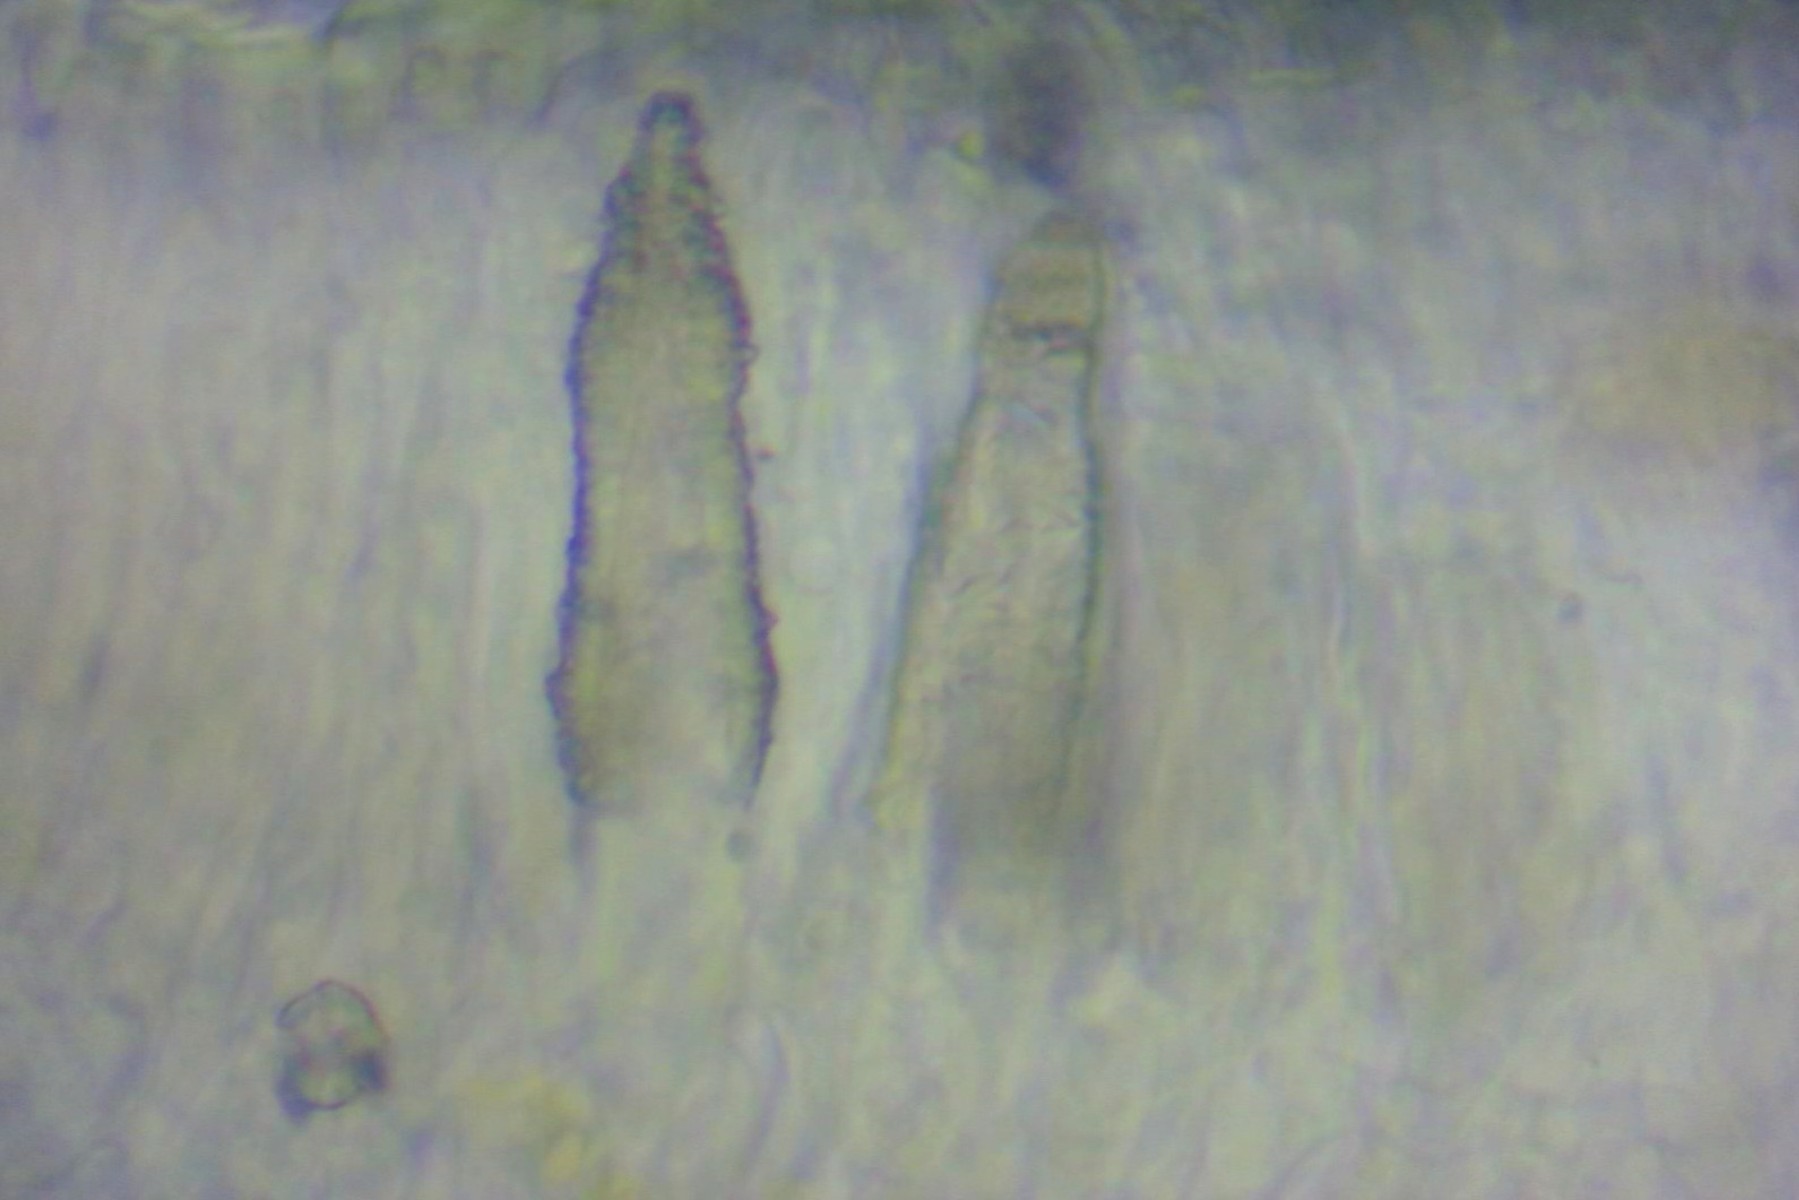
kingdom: Fungi
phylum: Basidiomycota
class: Agaricomycetes
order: Polyporales
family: Phanerochaetaceae
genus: Phlebiopsis
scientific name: Phlebiopsis gigantea
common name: kæmpebarksvamp
